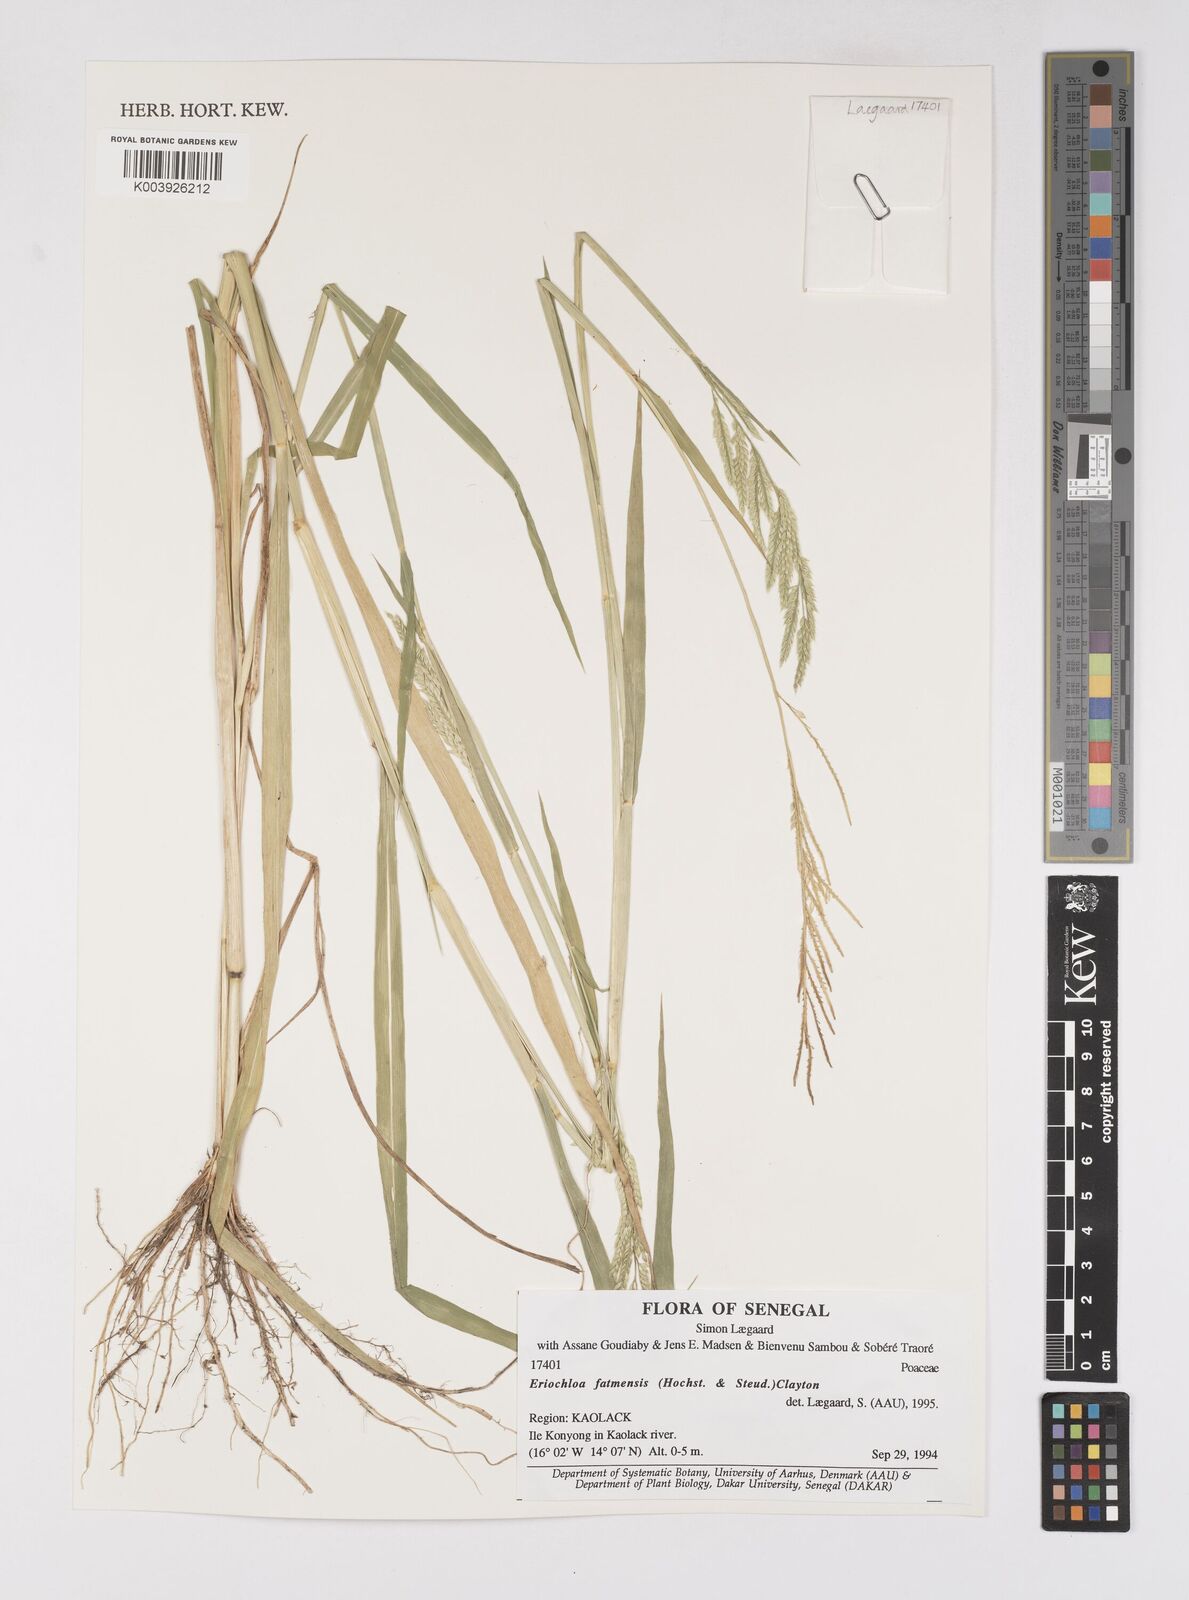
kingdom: Plantae
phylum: Tracheophyta
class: Liliopsida
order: Poales
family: Poaceae
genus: Eriochloa
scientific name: Eriochloa barbatus
